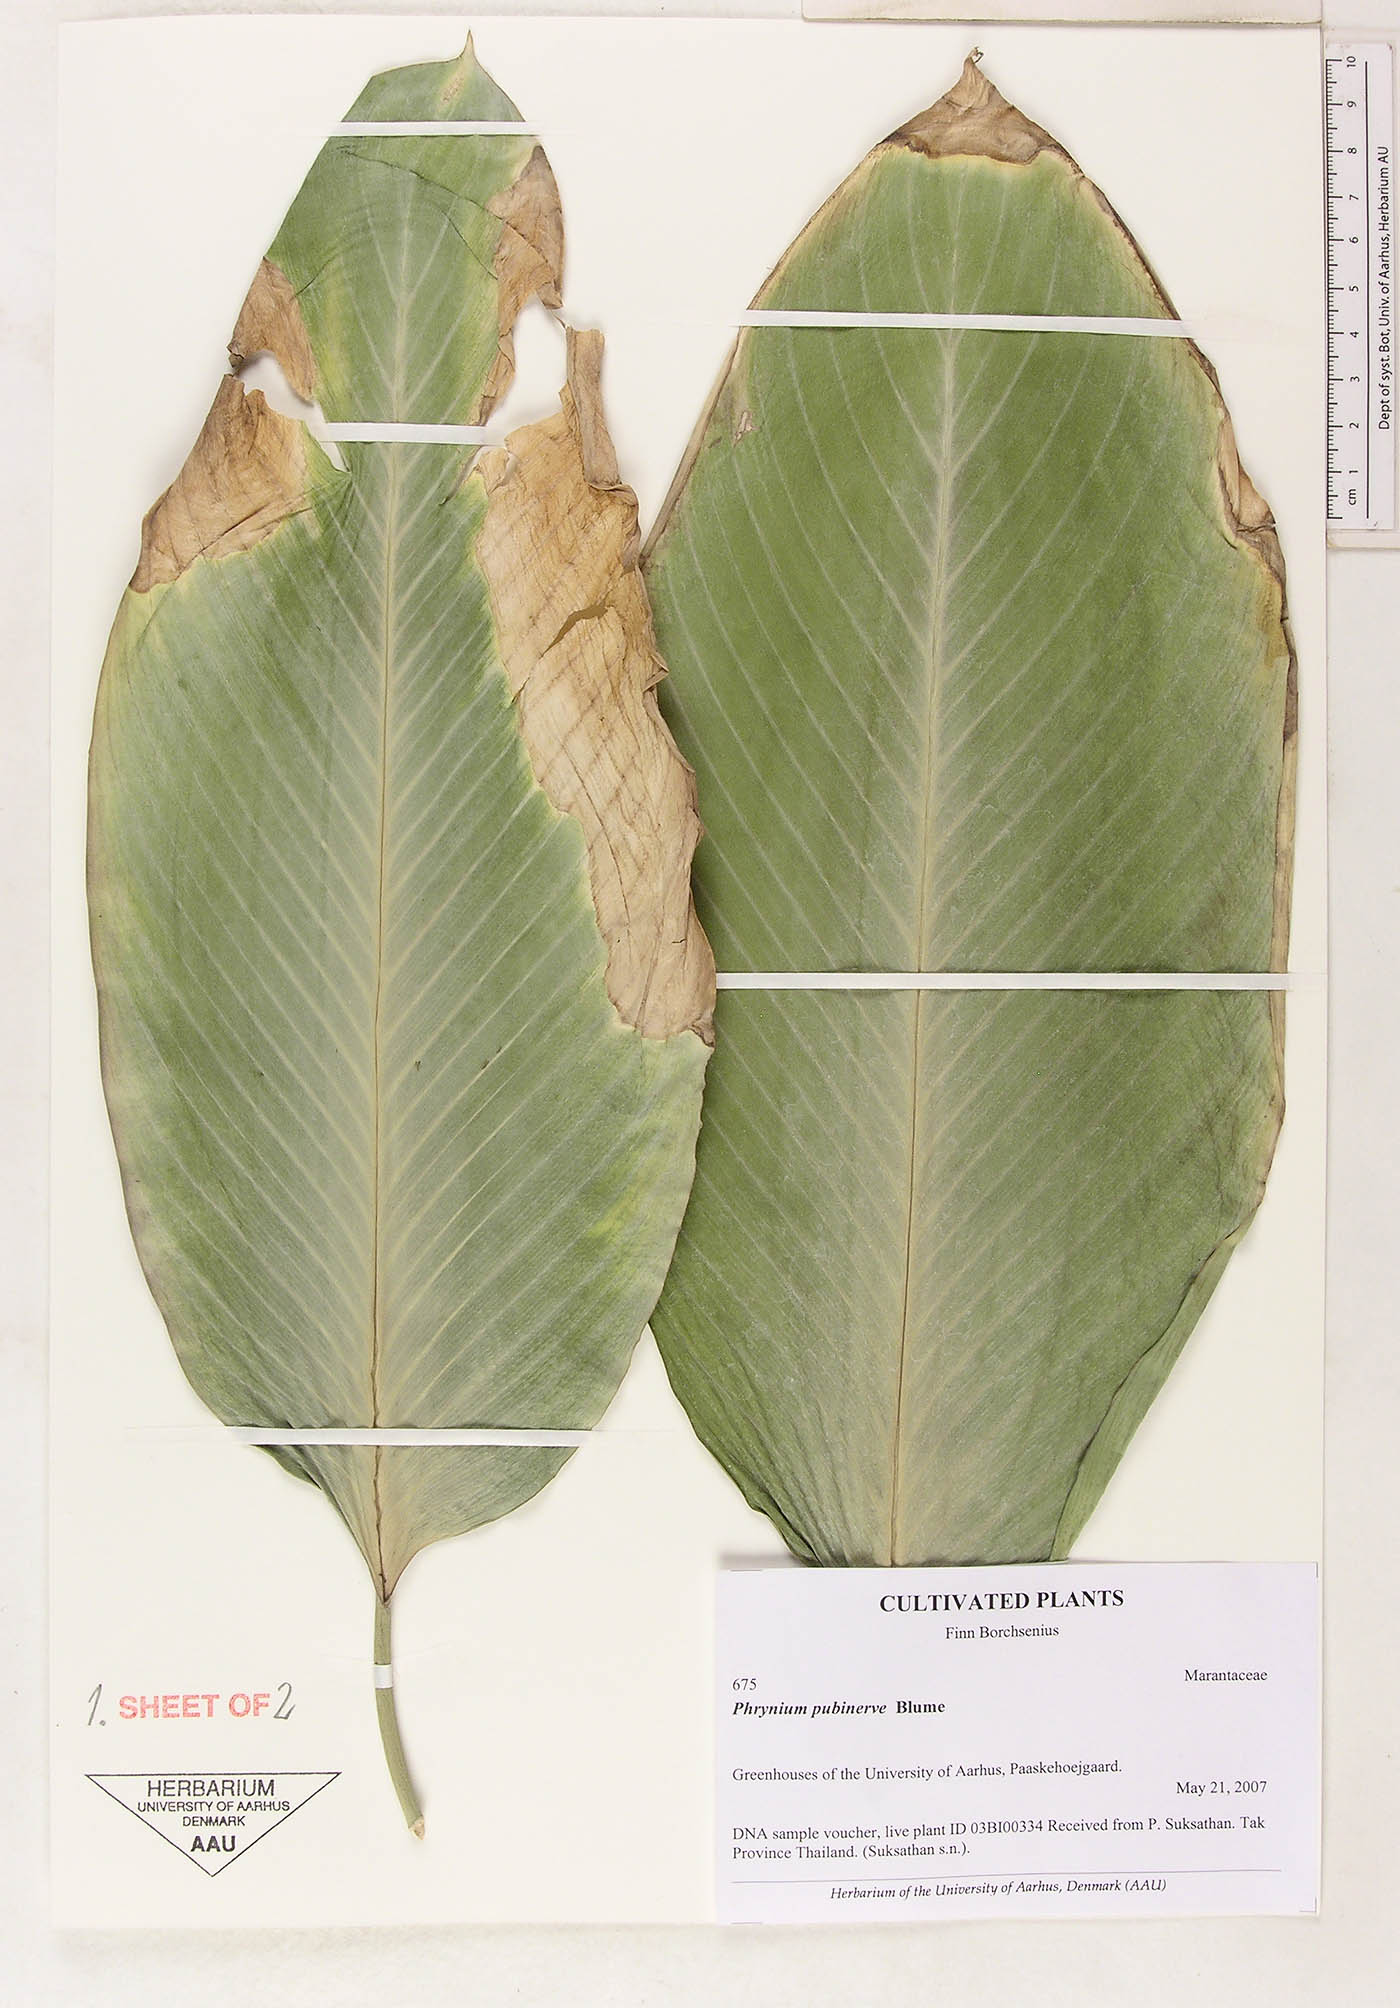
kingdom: Plantae
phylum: Tracheophyta
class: Liliopsida
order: Zingiberales
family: Marantaceae
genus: Phrynium
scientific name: Phrynium pubinerve
